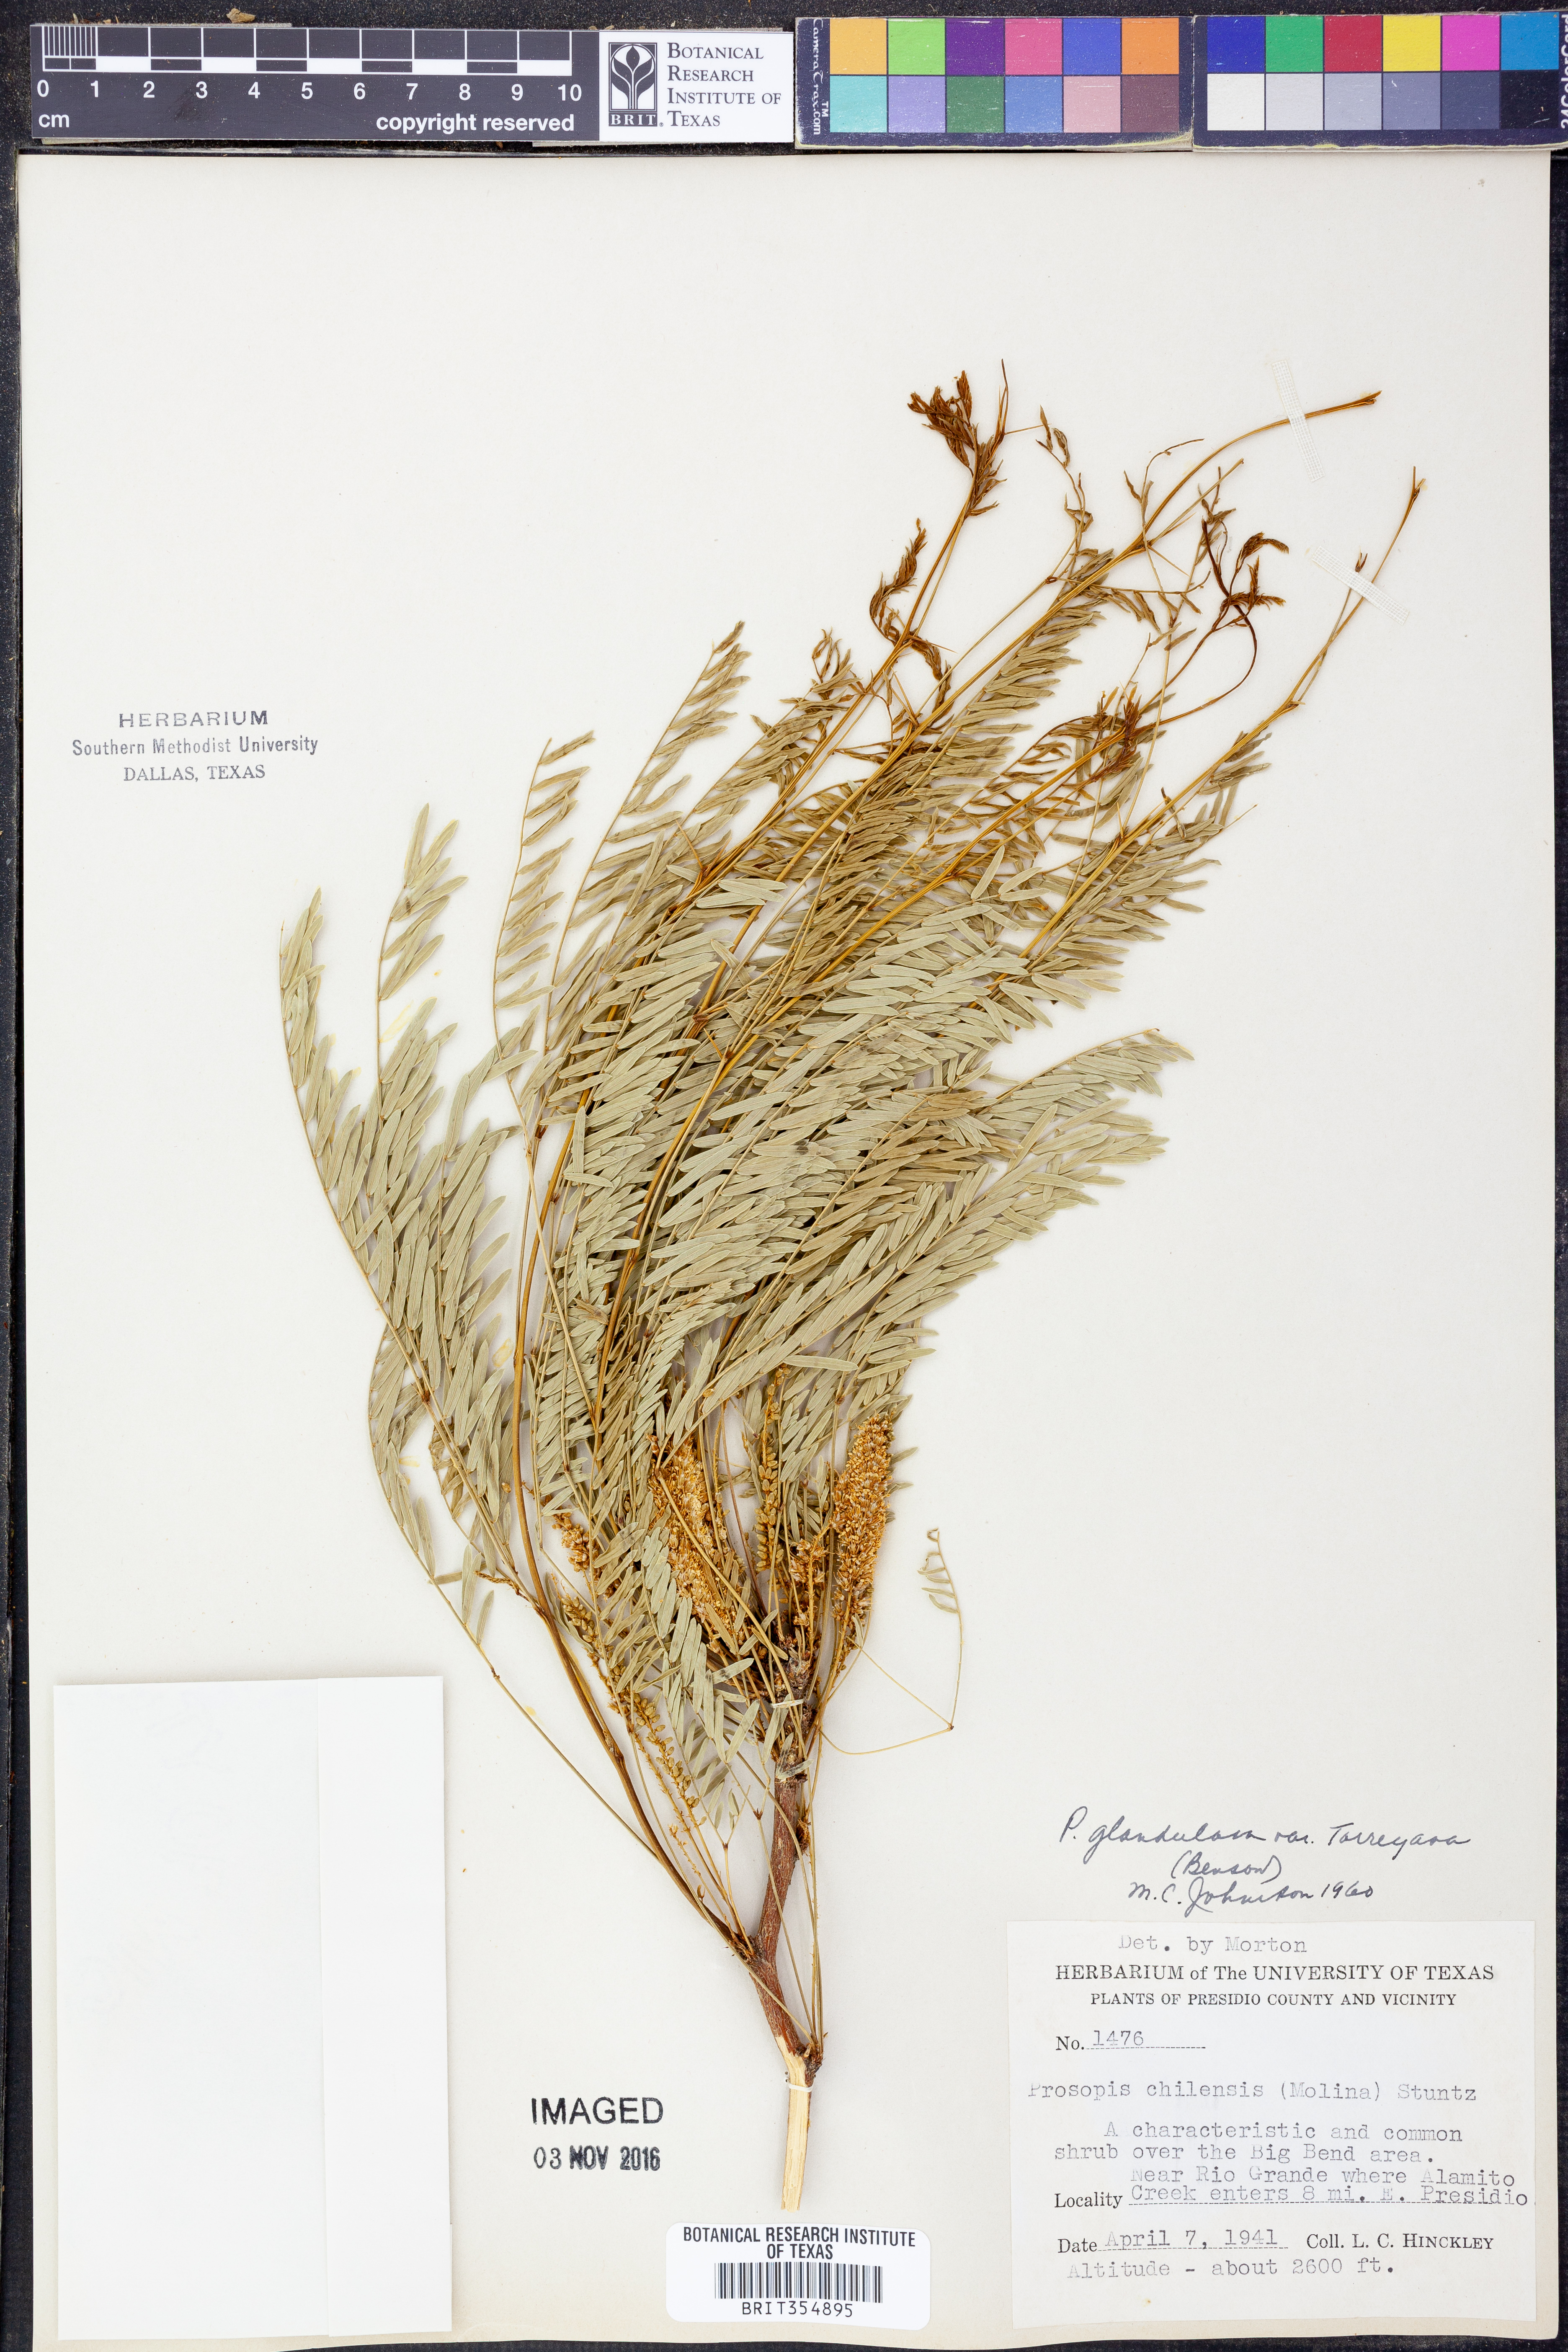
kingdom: Plantae
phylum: Tracheophyta
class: Magnoliopsida
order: Fabales
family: Fabaceae
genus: Prosopis
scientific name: Prosopis glandulosa
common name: Honey mesquite
